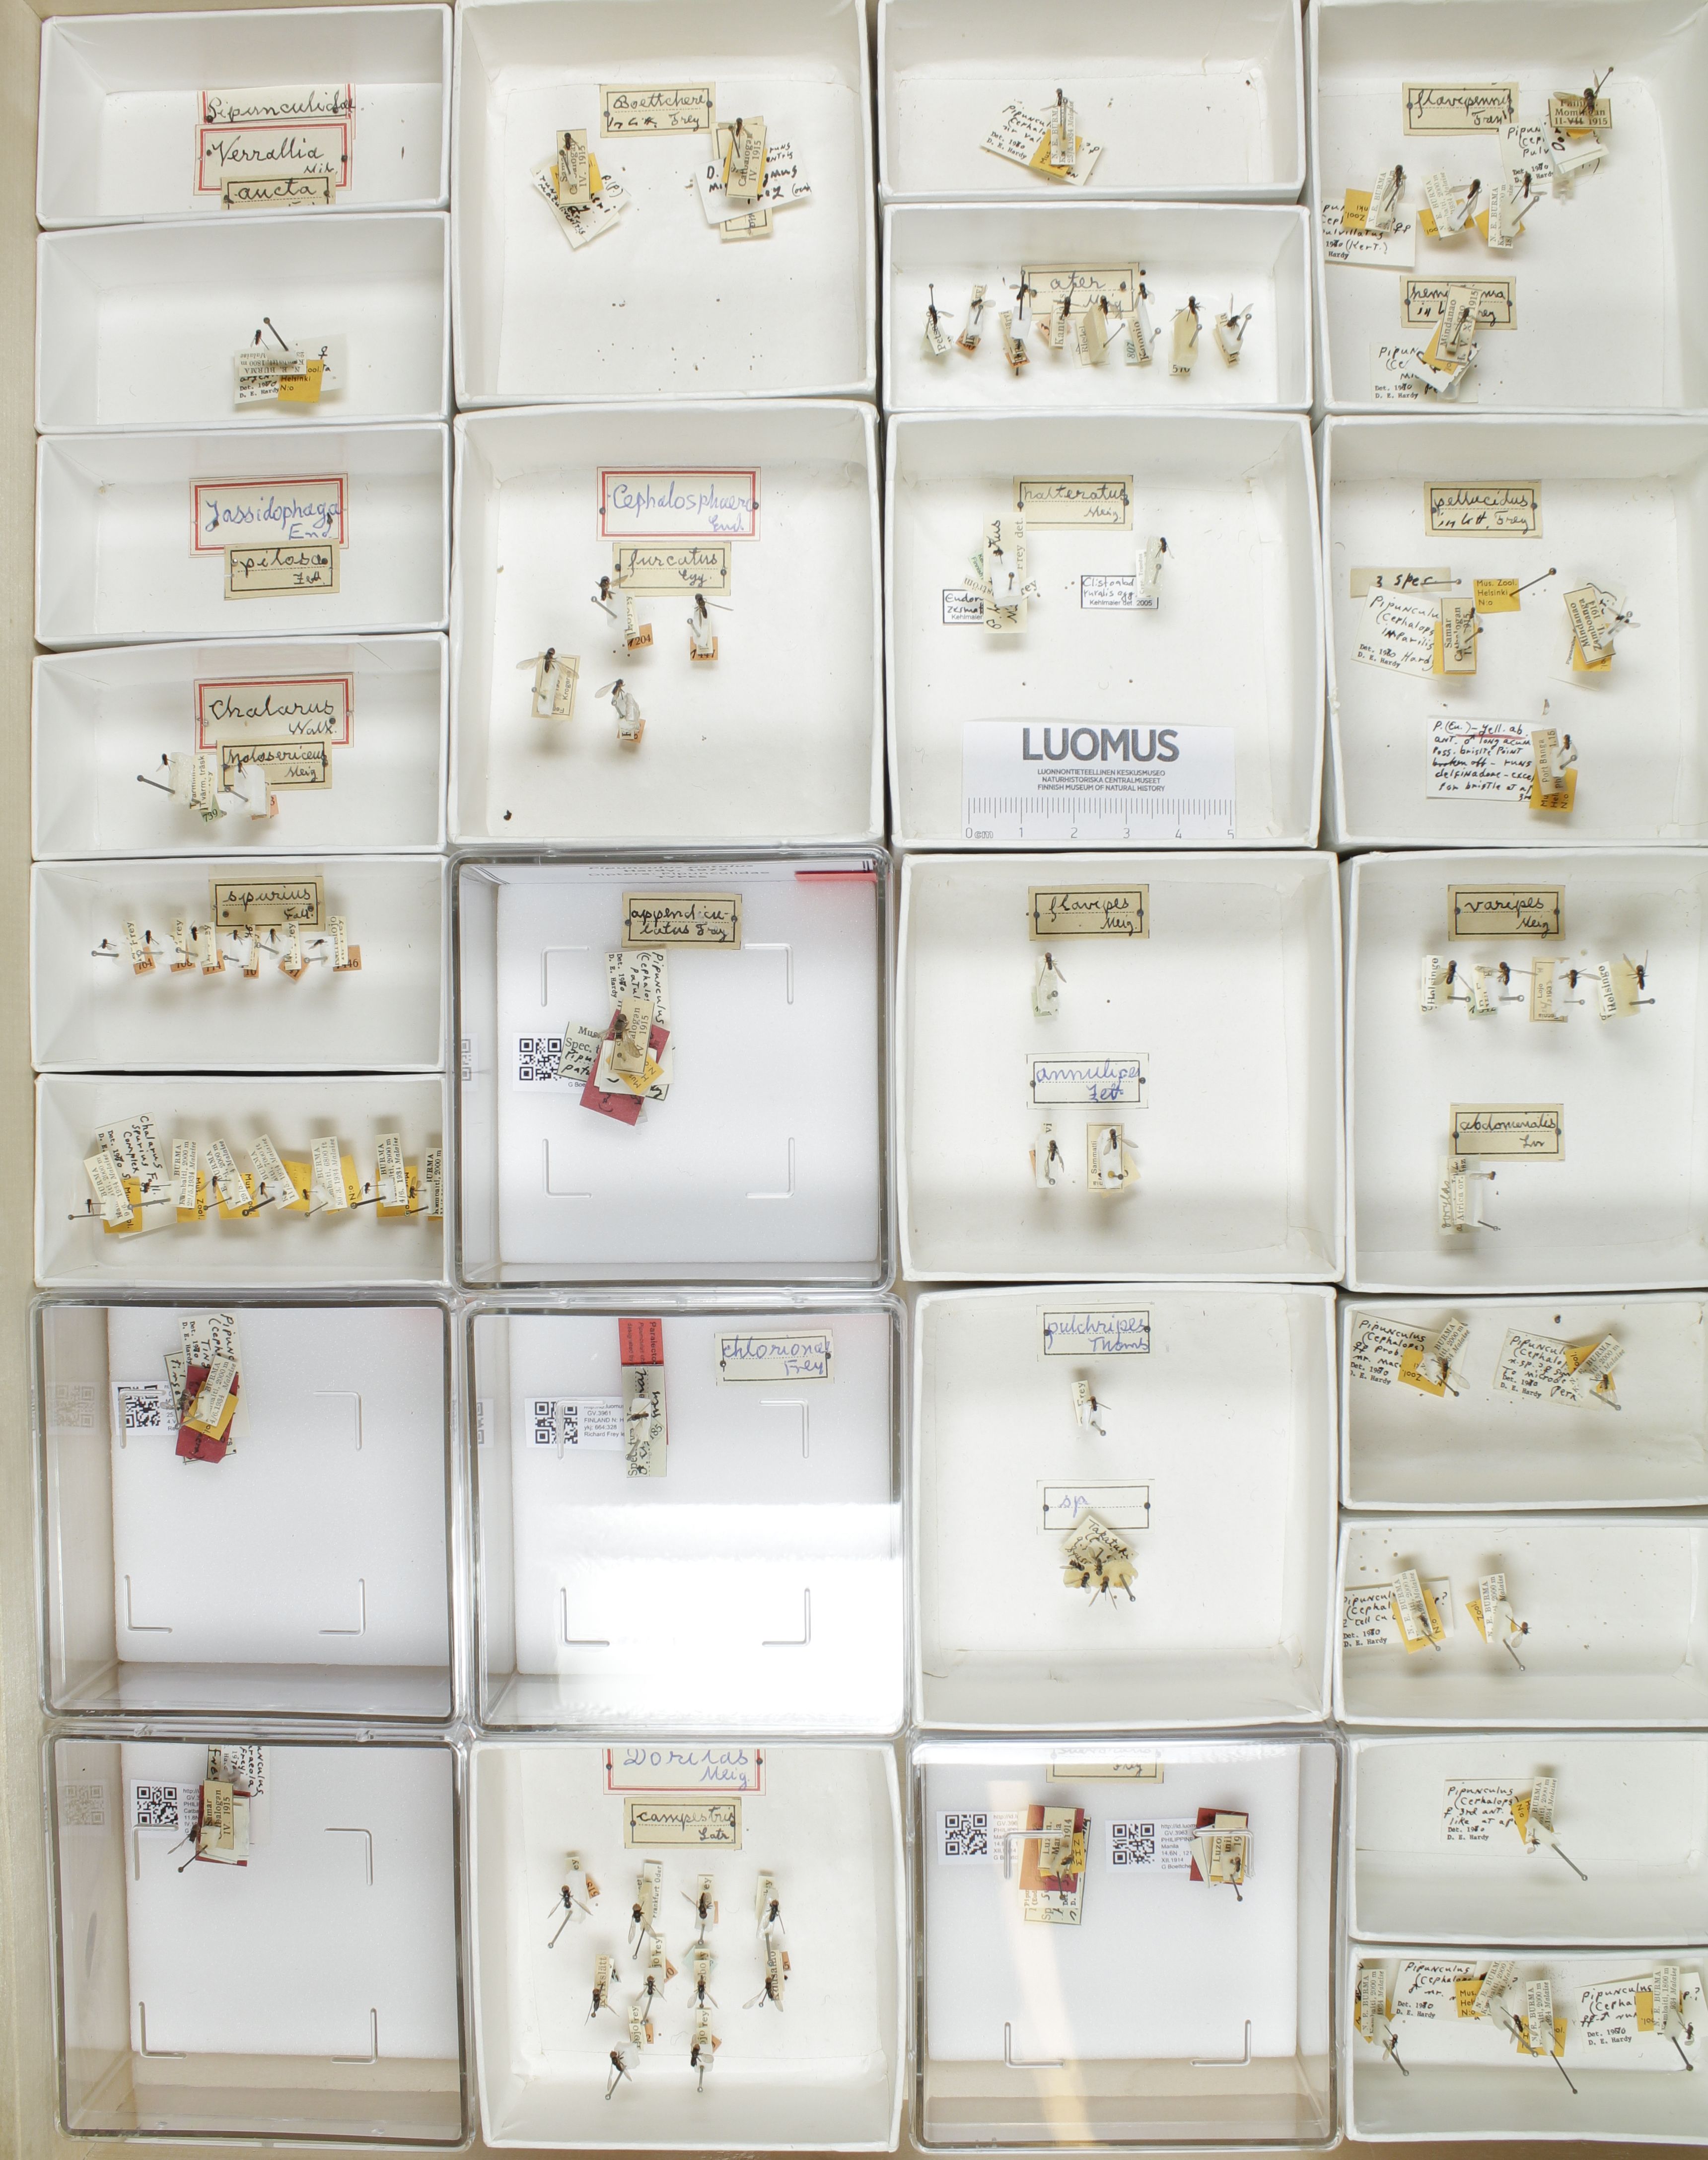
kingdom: Animalia
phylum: Arthropoda
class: Insecta
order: Diptera
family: Pipunculidae
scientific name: Pipunculidae
